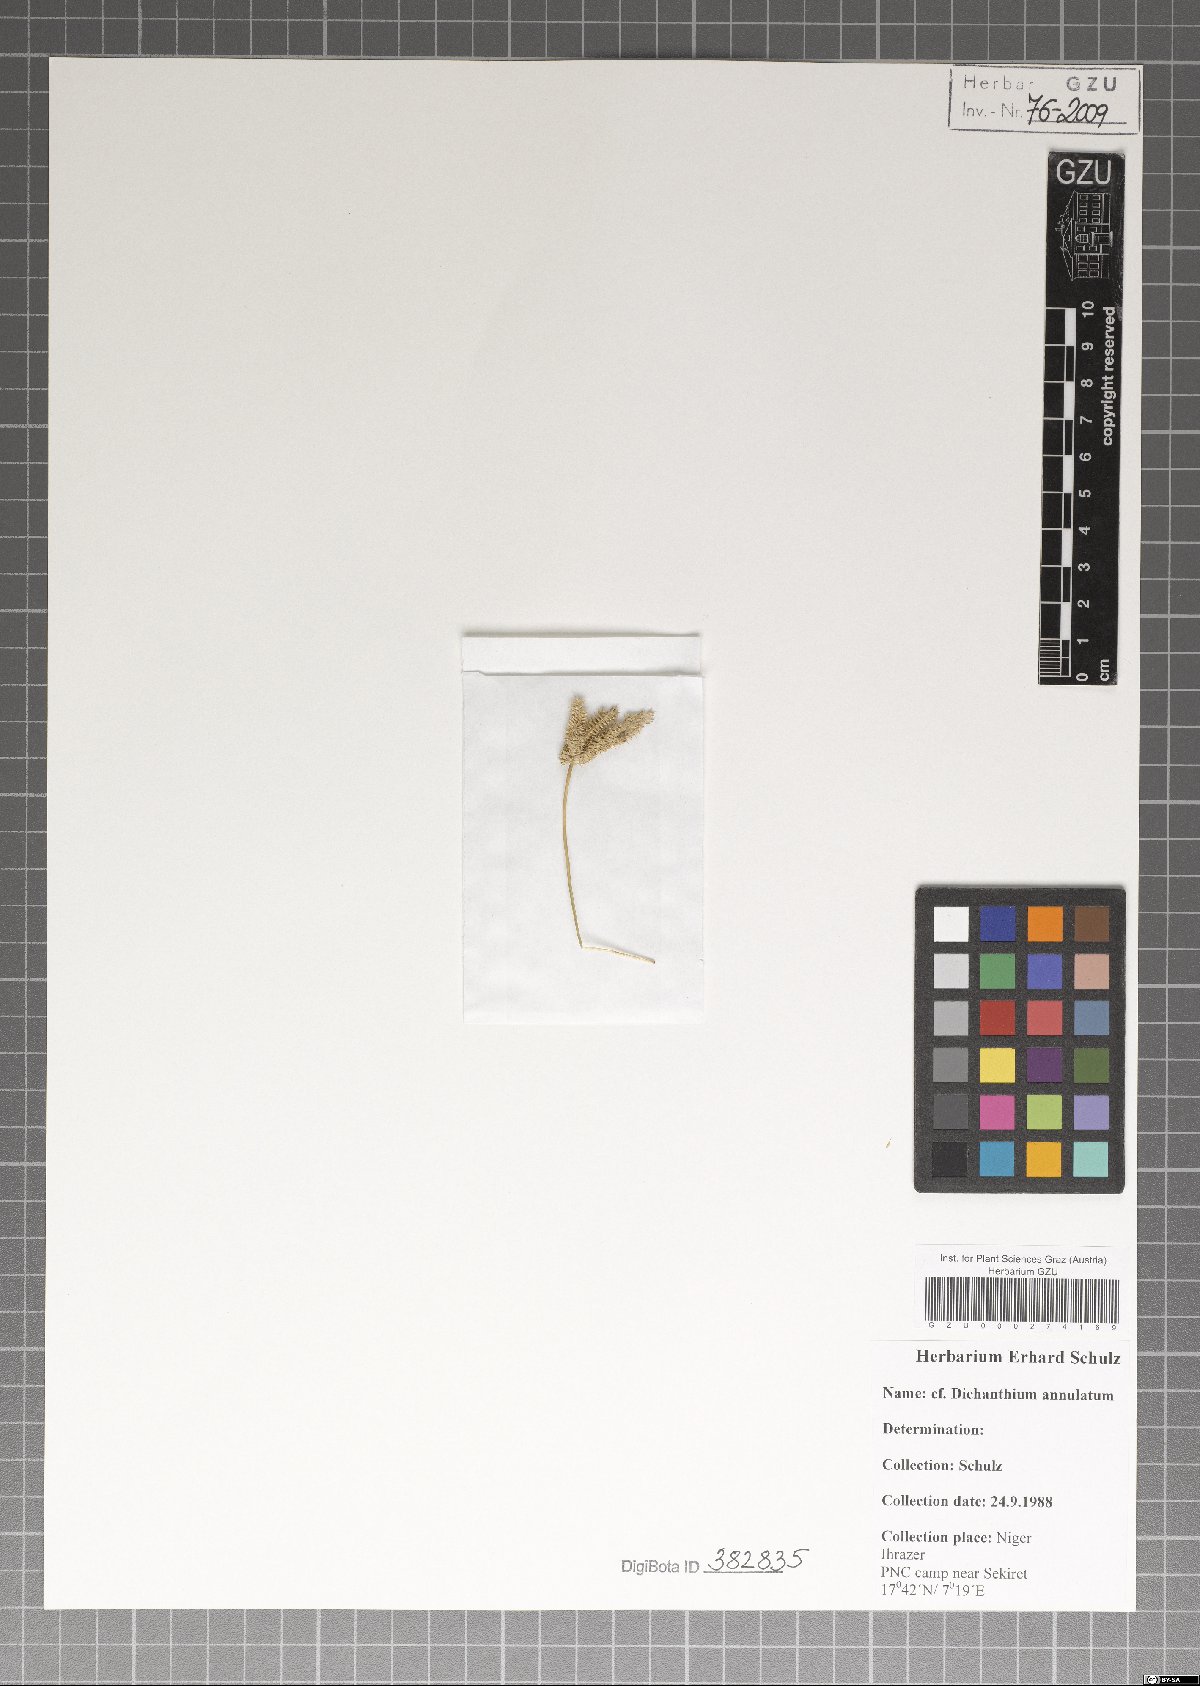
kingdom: Plantae
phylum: Tracheophyta
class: Liliopsida
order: Poales
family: Poaceae
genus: Dichanthium
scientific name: Dichanthium annulatum
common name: Kleberg's bluestem
